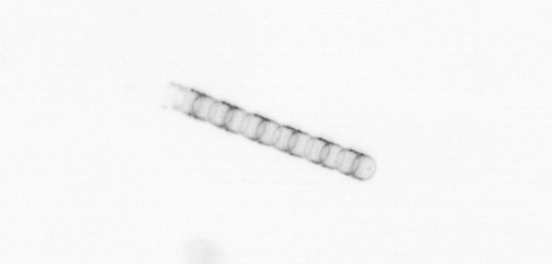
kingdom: Chromista
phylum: Ochrophyta
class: Bacillariophyceae
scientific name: Bacillariophyceae
